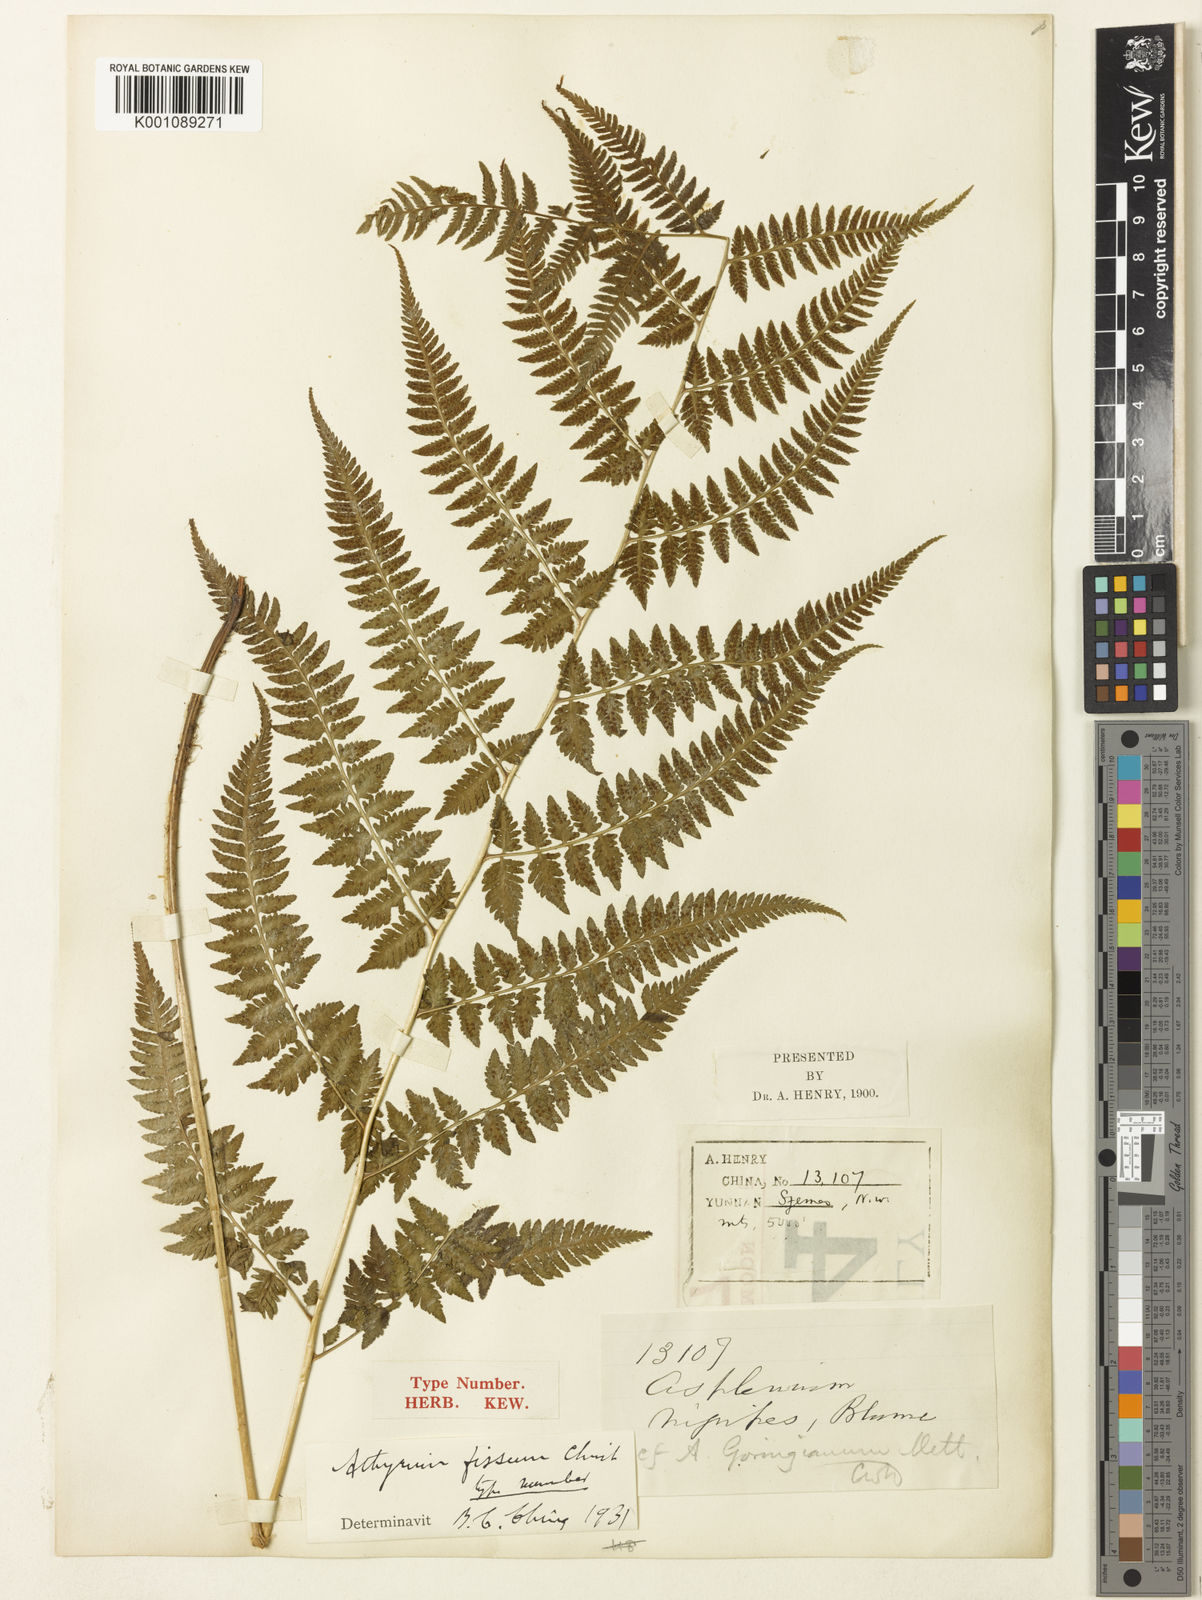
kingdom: Plantae
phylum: Tracheophyta
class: Polypodiopsida
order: Polypodiales
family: Athyriaceae
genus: Anisocampium
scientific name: Anisocampium niponicum
